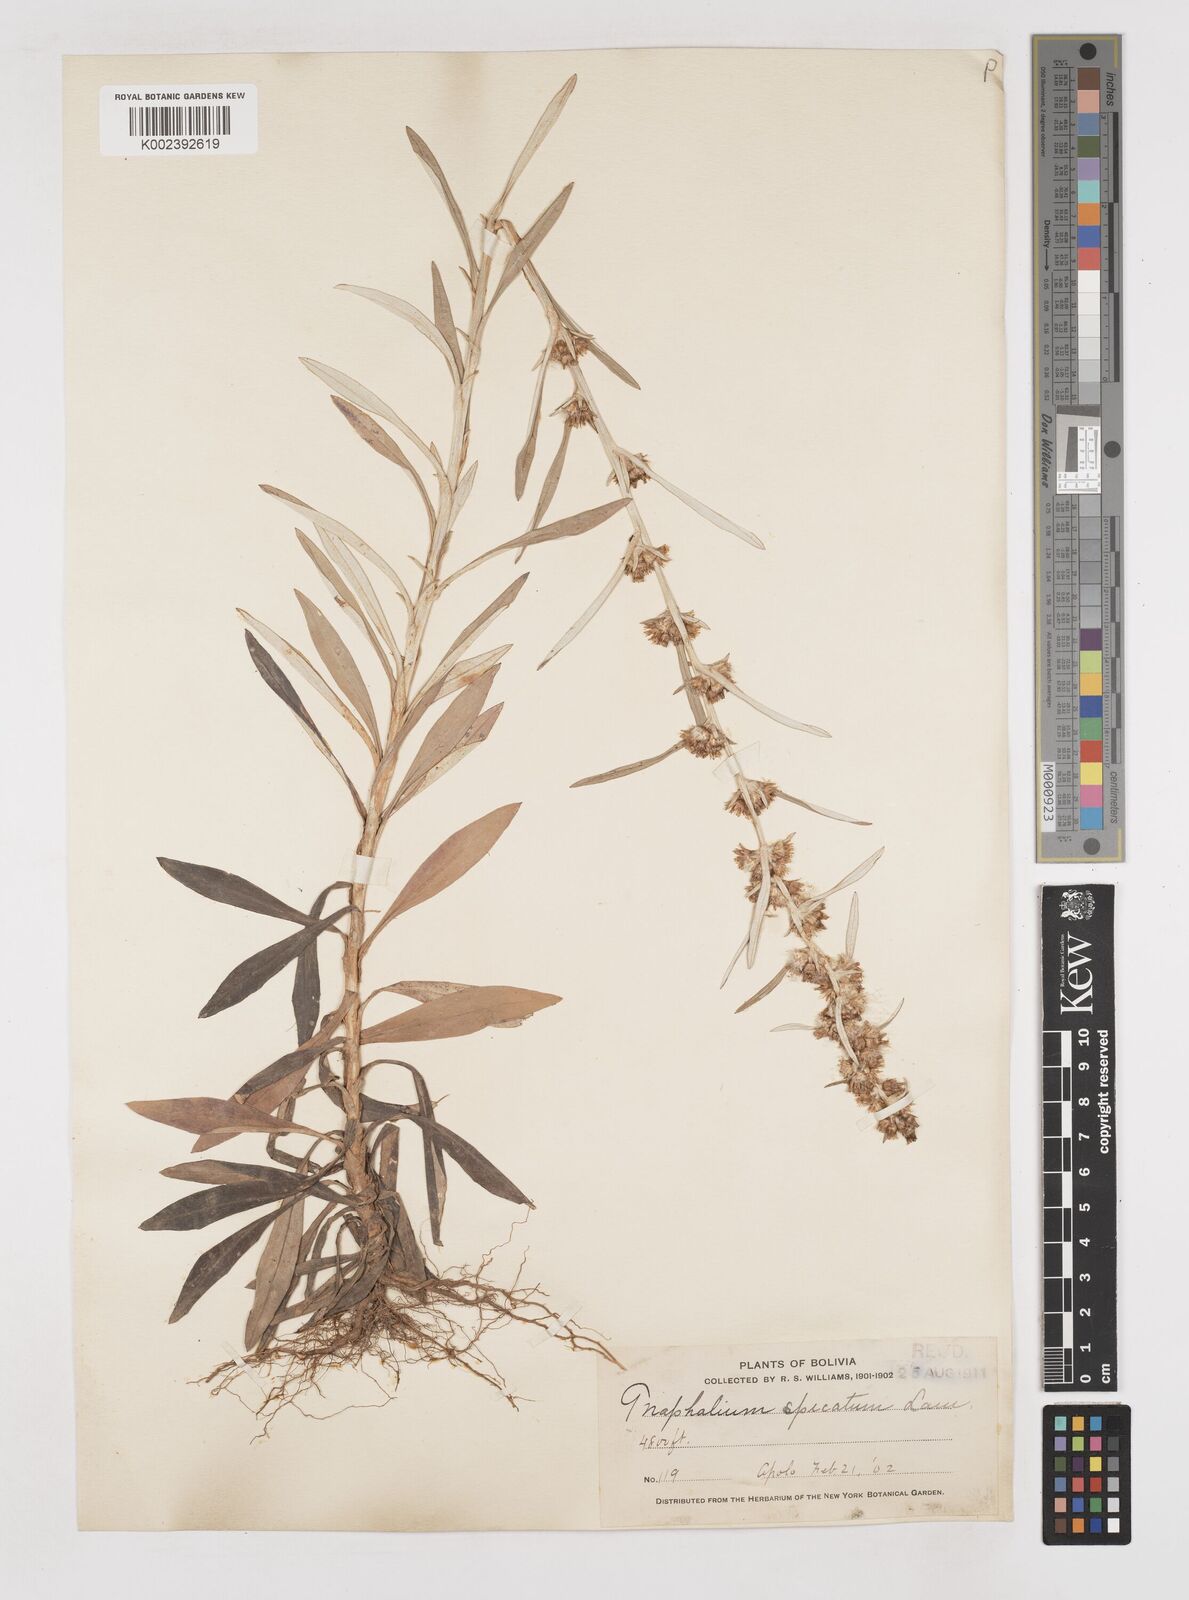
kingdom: Plantae
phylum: Tracheophyta
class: Magnoliopsida
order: Asterales
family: Asteraceae
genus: Gamochaeta
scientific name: Gamochaeta americana
